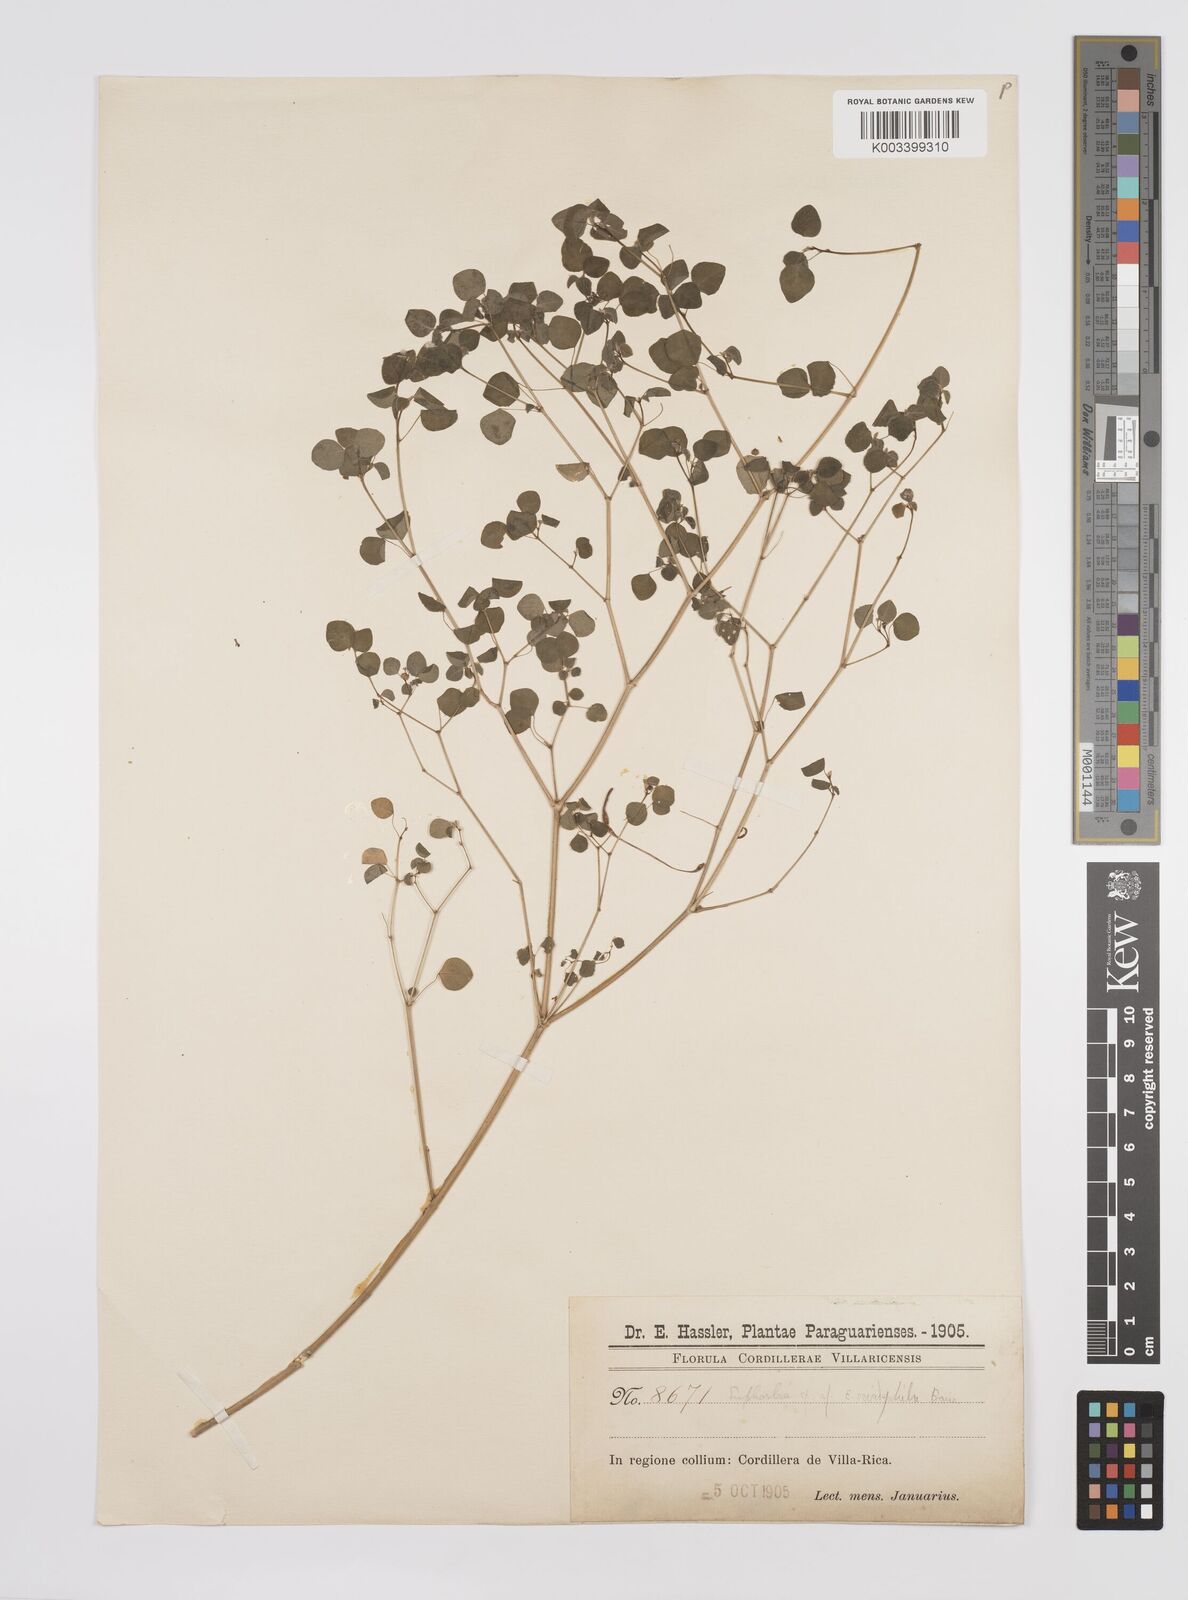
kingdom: Plantae
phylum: Tracheophyta
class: Magnoliopsida
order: Malpighiales
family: Euphorbiaceae
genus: Euphorbia
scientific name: Euphorbia
